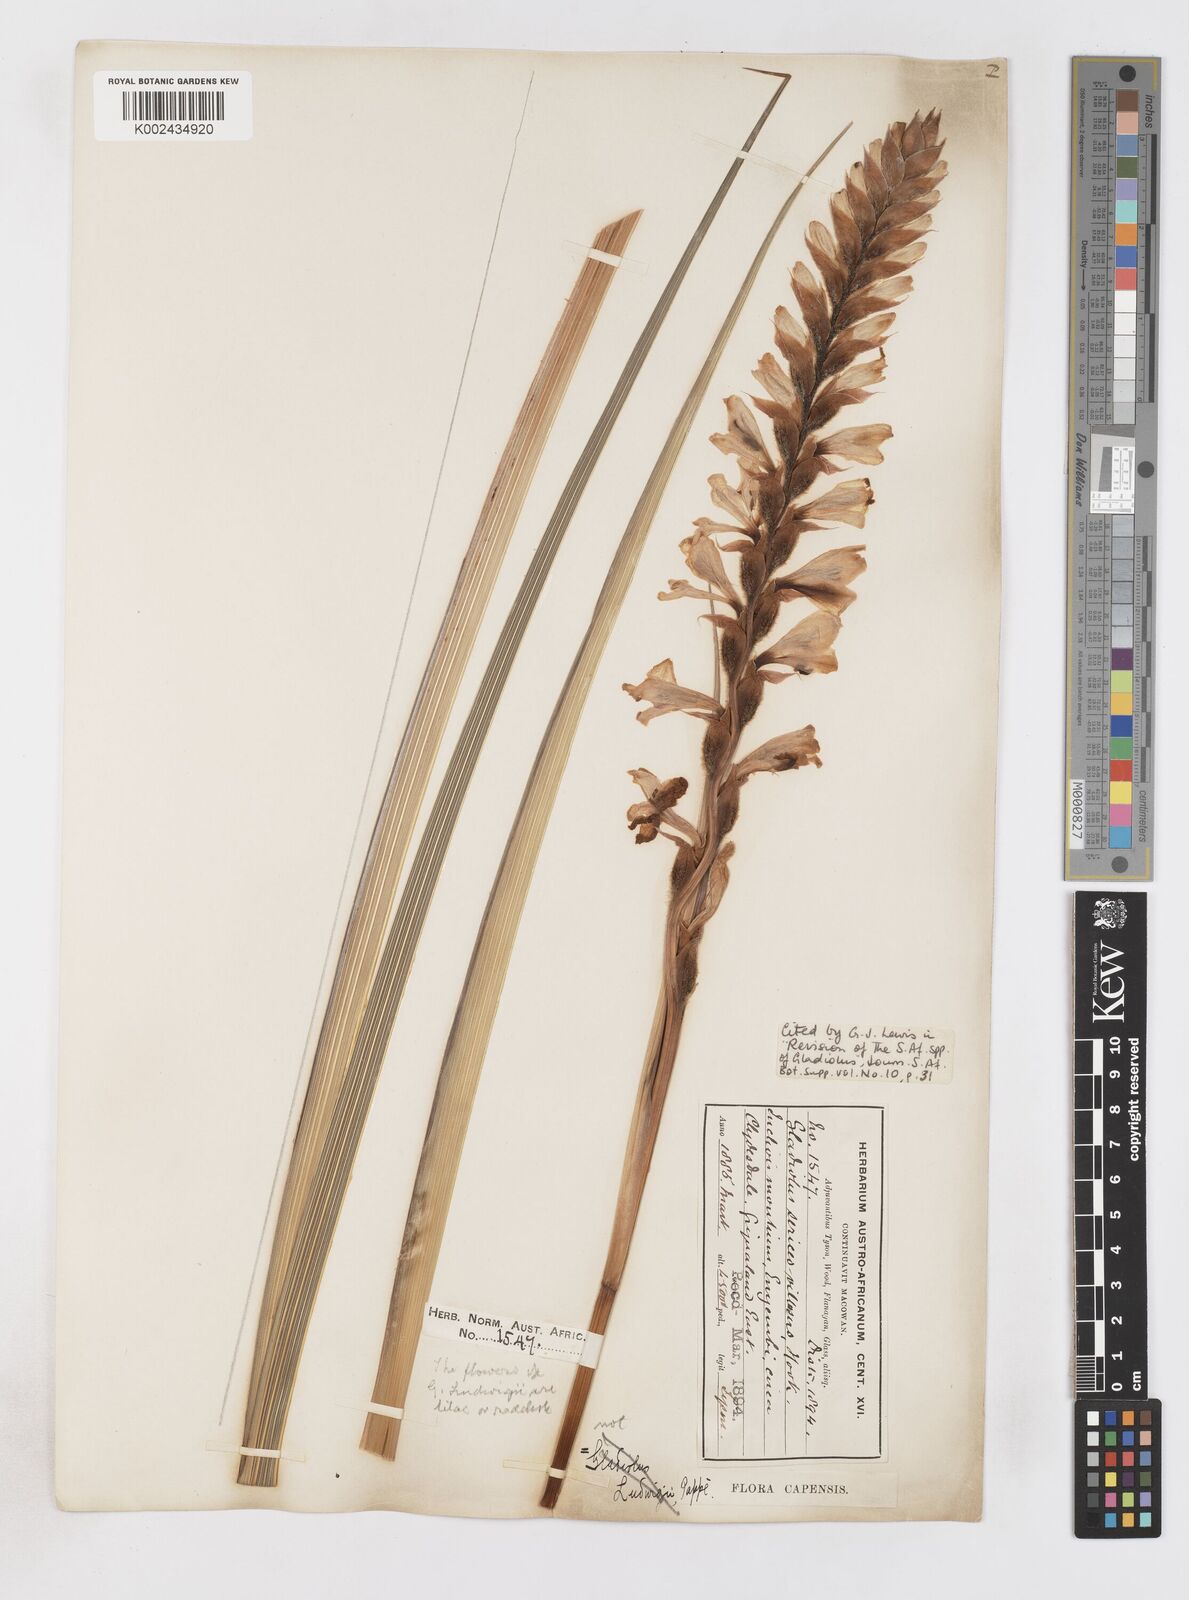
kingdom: Plantae
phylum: Tracheophyta
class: Liliopsida
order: Asparagales
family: Iridaceae
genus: Gladiolus
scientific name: Gladiolus sericeovillosus
